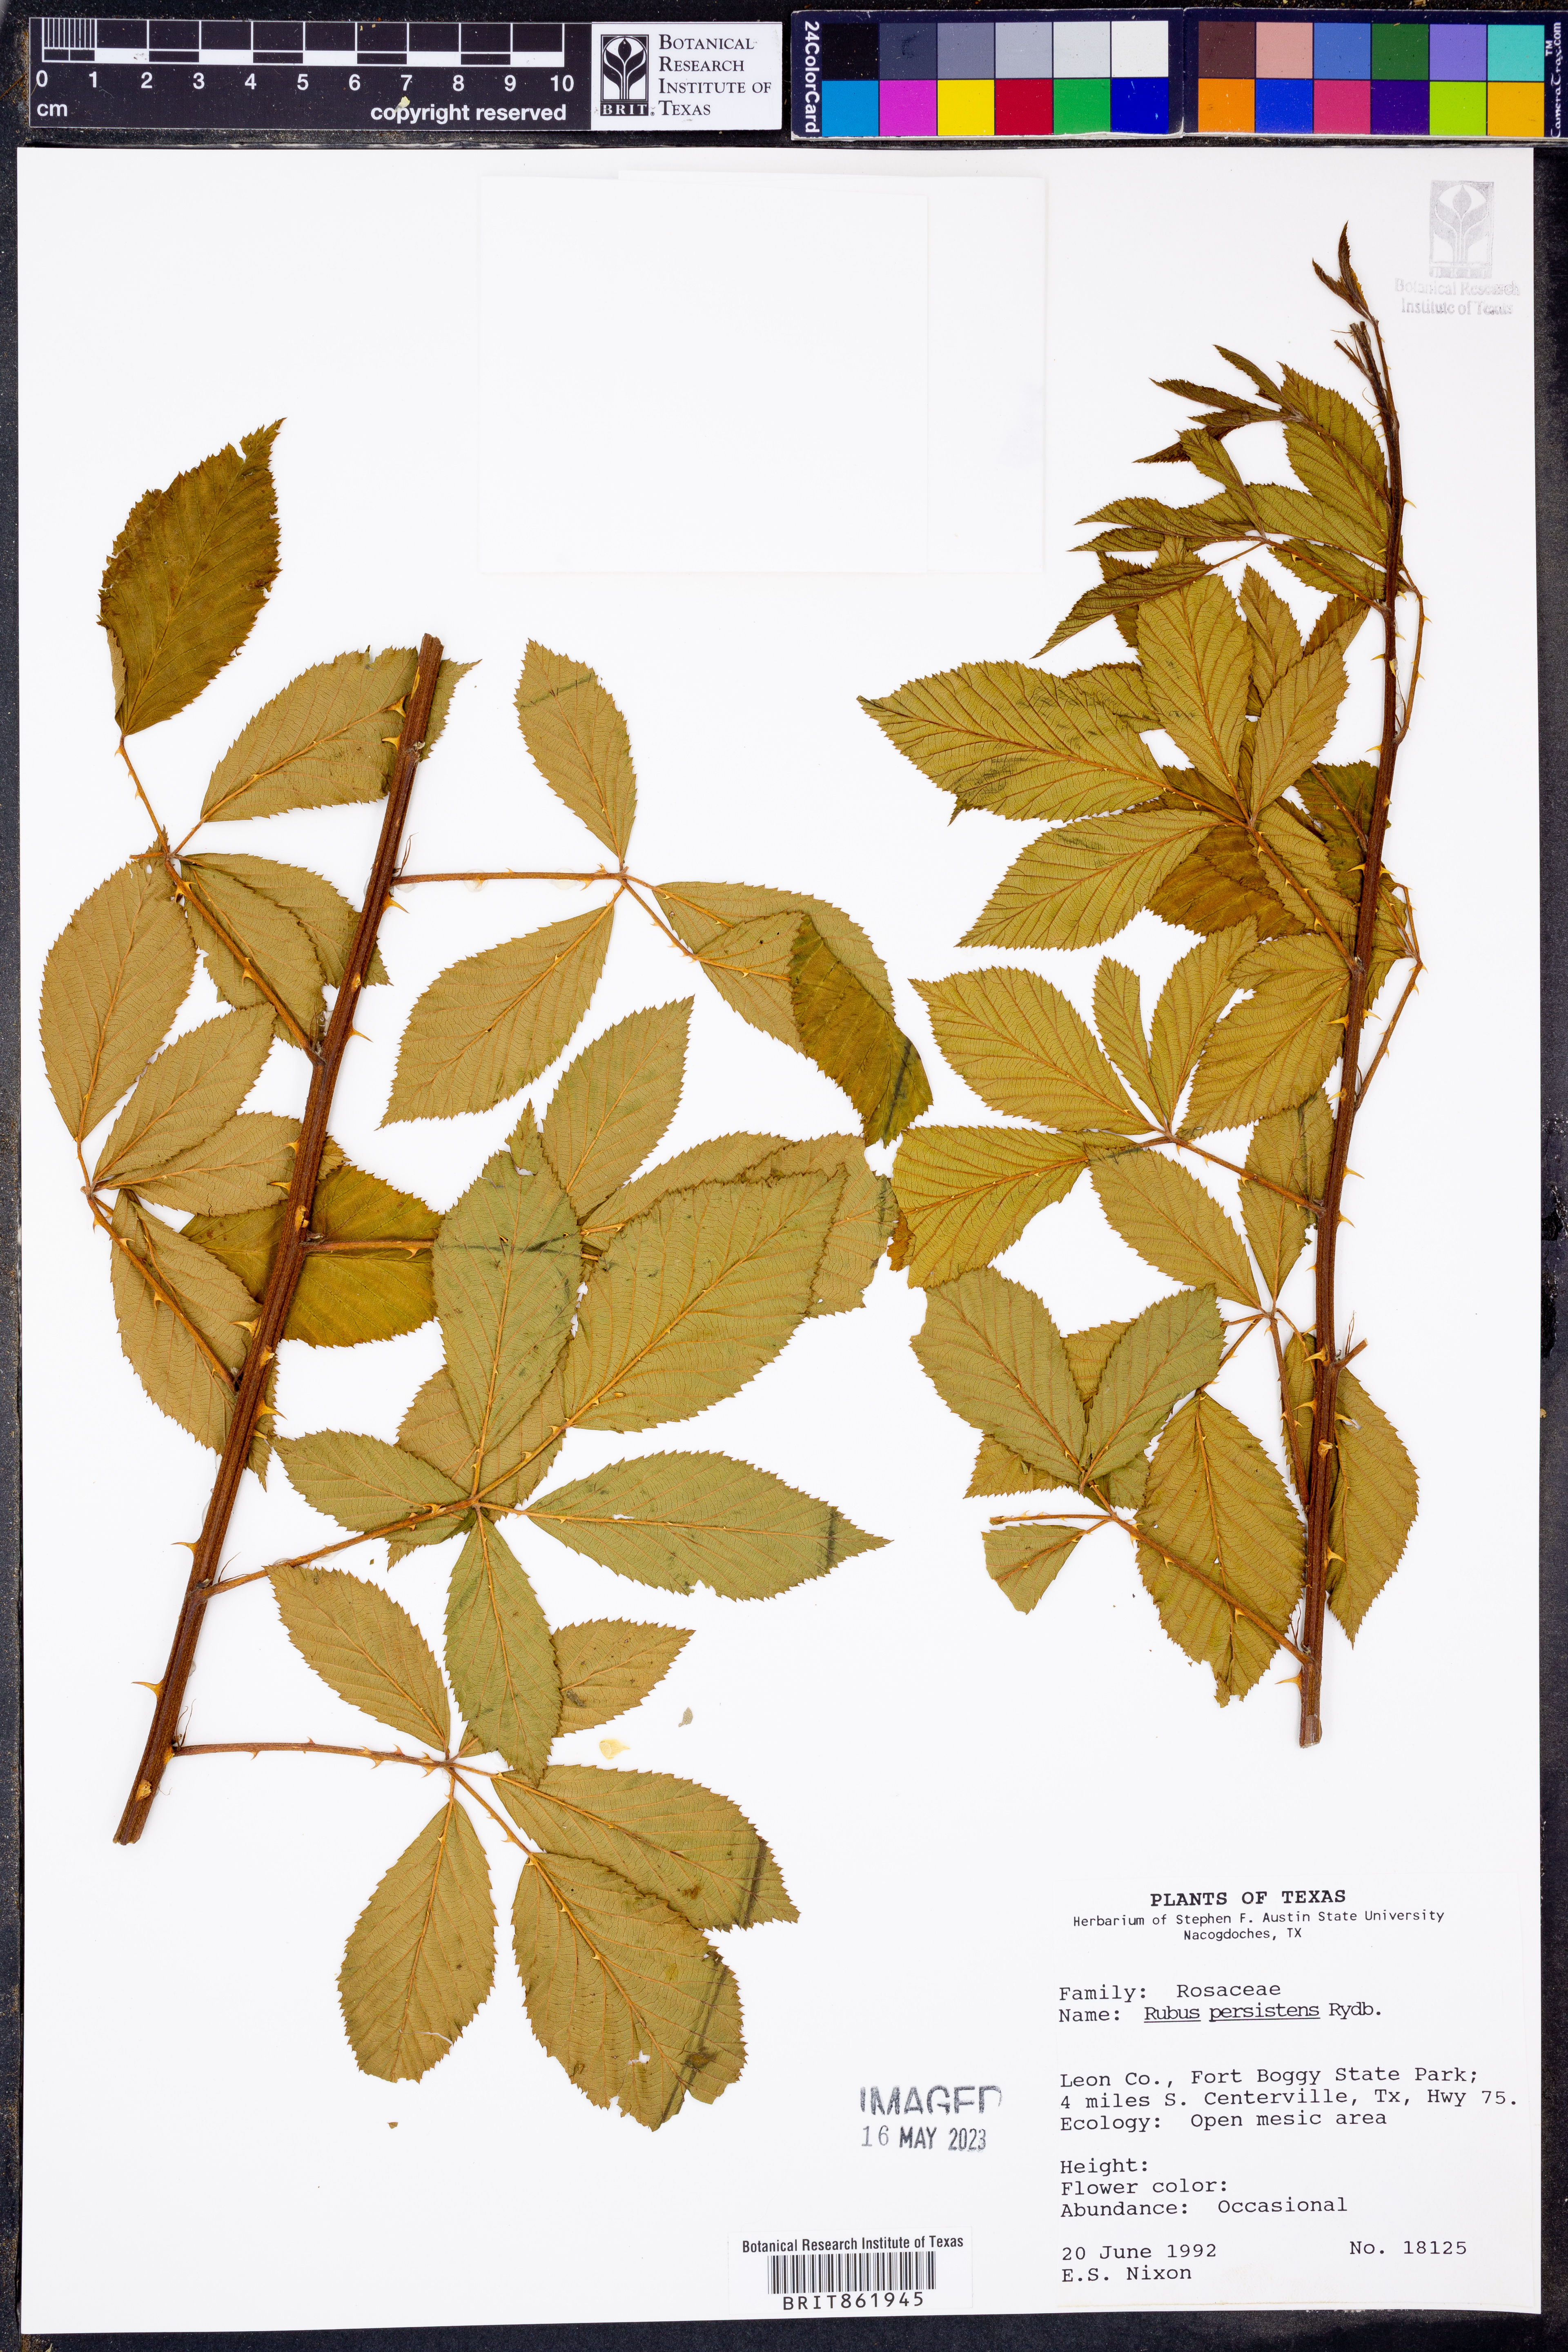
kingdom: Plantae
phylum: Tracheophyta
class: Magnoliopsida
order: Rosales
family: Rosaceae
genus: Rubus
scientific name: Rubus persistens
